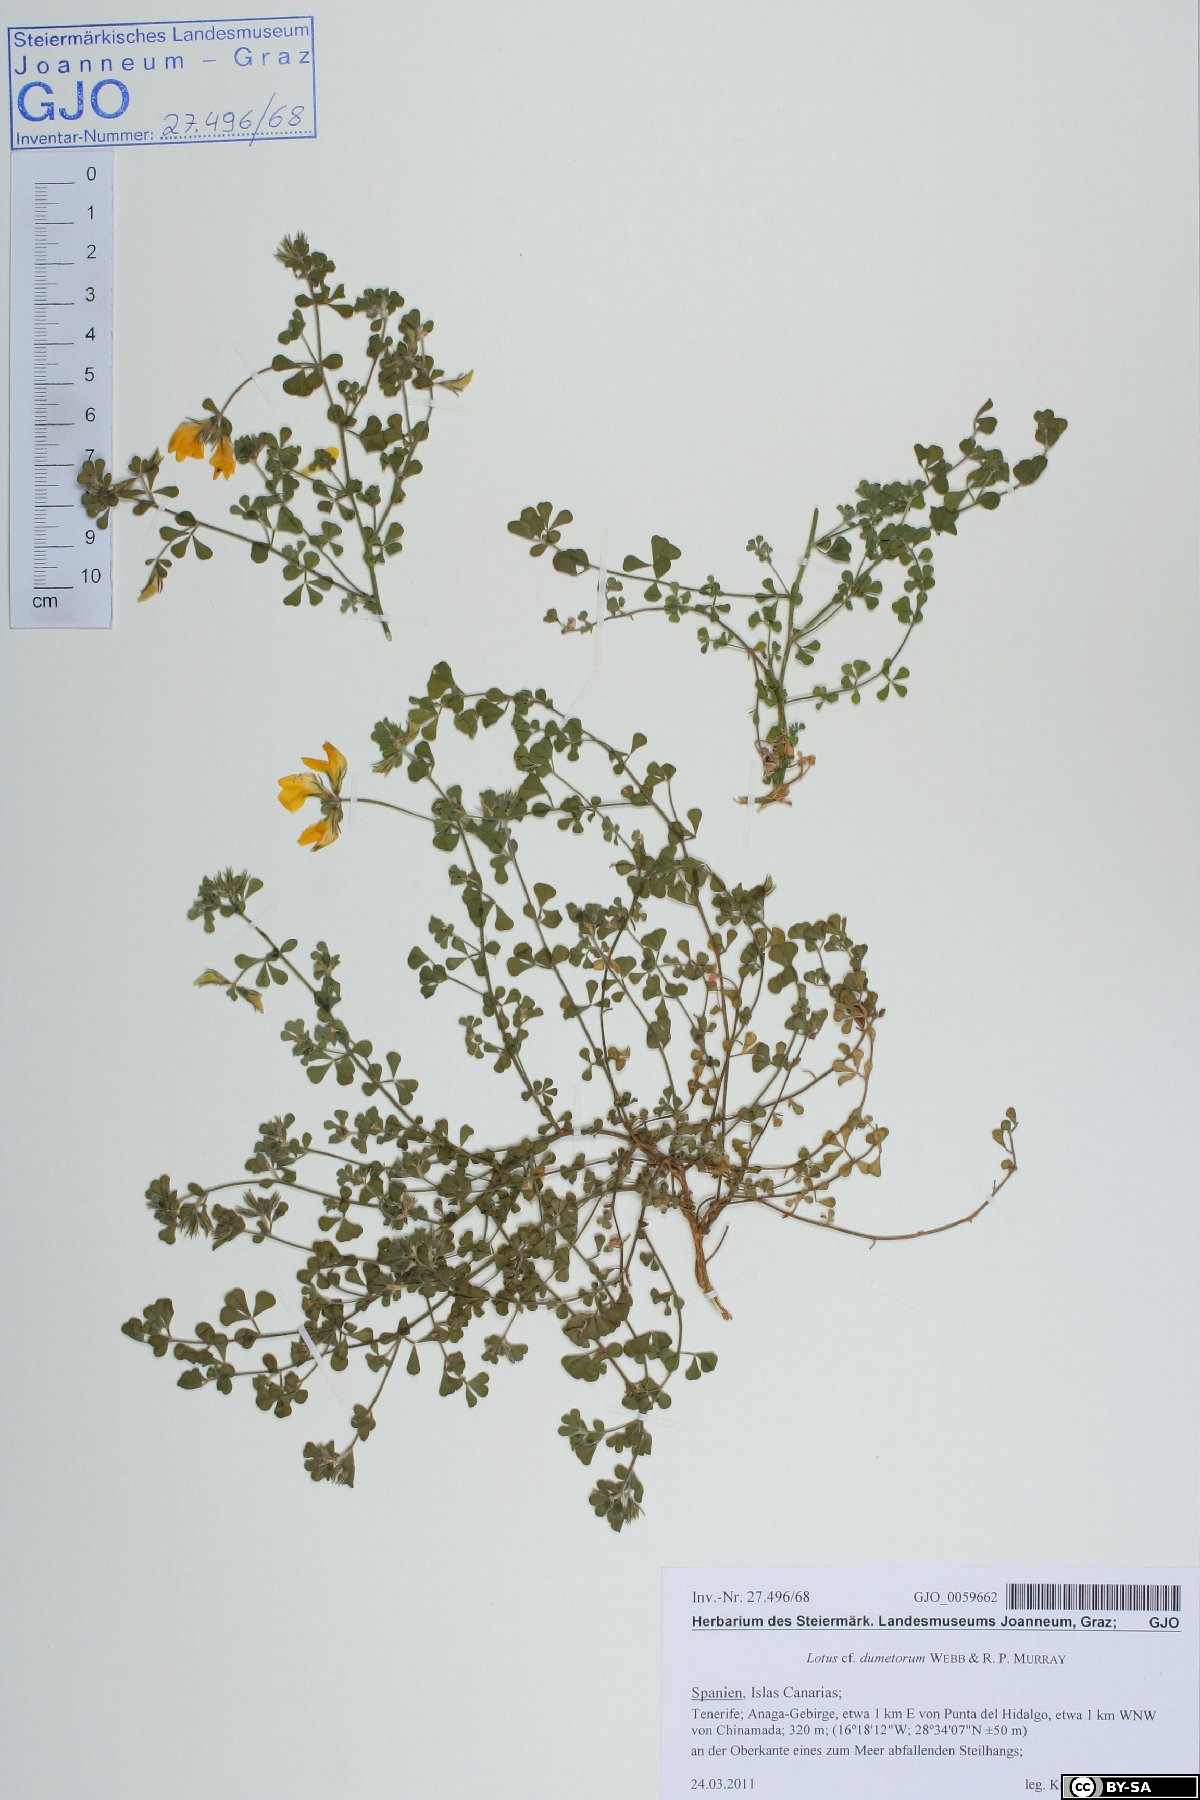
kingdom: Plantae
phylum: Tracheophyta
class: Magnoliopsida
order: Fabales
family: Fabaceae
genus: Lotus
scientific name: Lotus dumetorum
